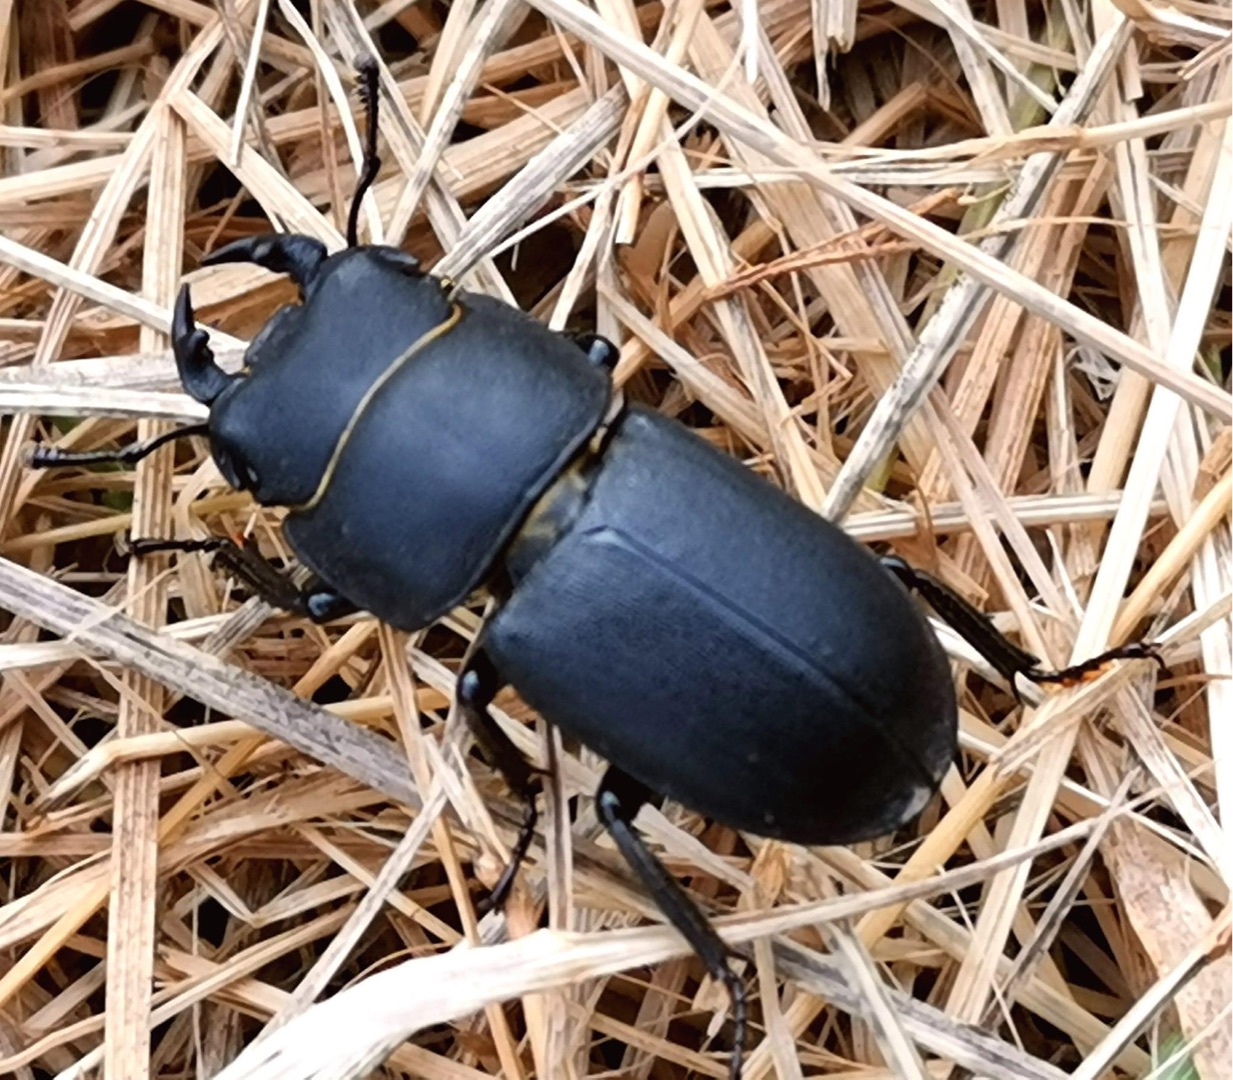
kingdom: Animalia
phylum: Arthropoda
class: Insecta
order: Coleoptera
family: Lucanidae
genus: Dorcus
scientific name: Dorcus parallelipipedus
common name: Bøghjort
